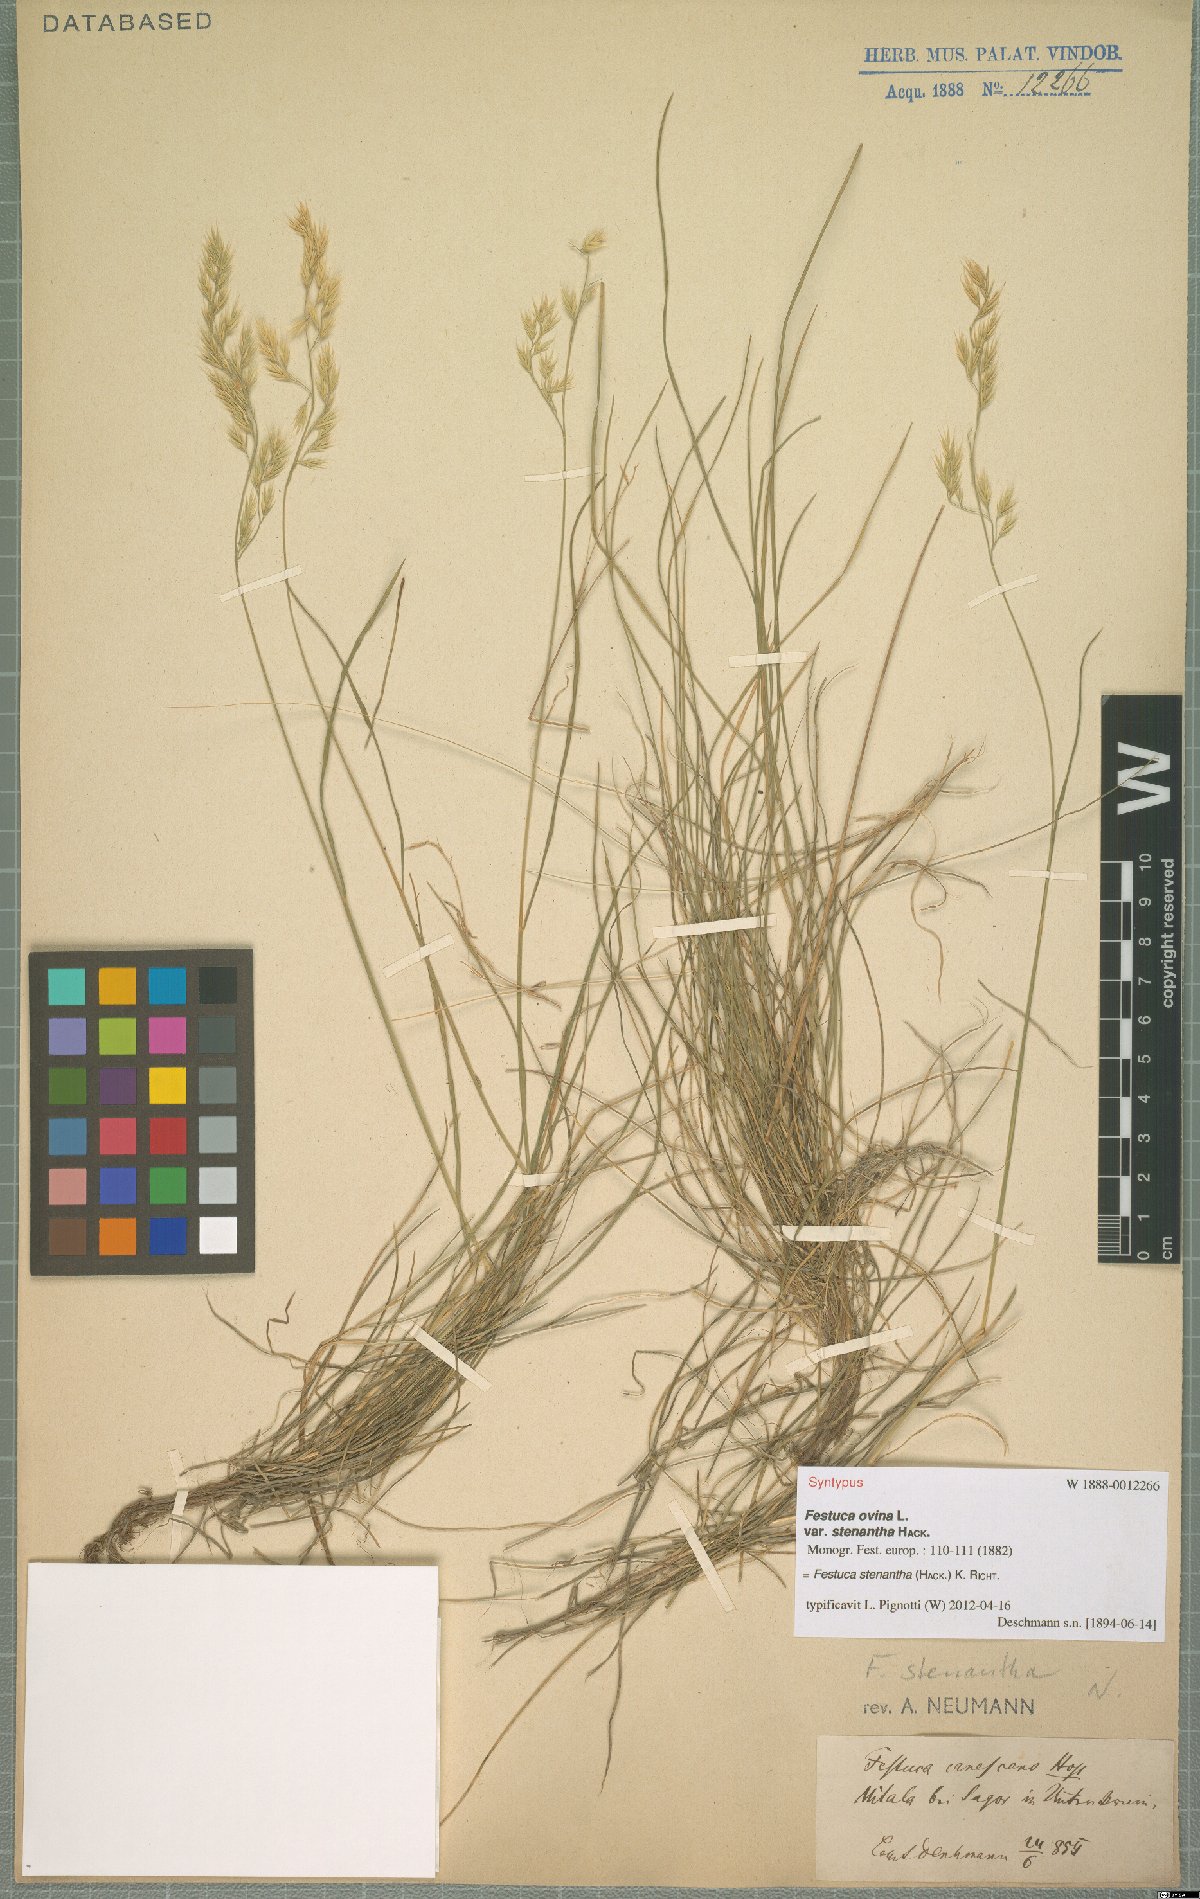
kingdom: Plantae
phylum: Tracheophyta
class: Liliopsida
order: Poales
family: Poaceae
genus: Festuca
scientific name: Festuca stenantha
